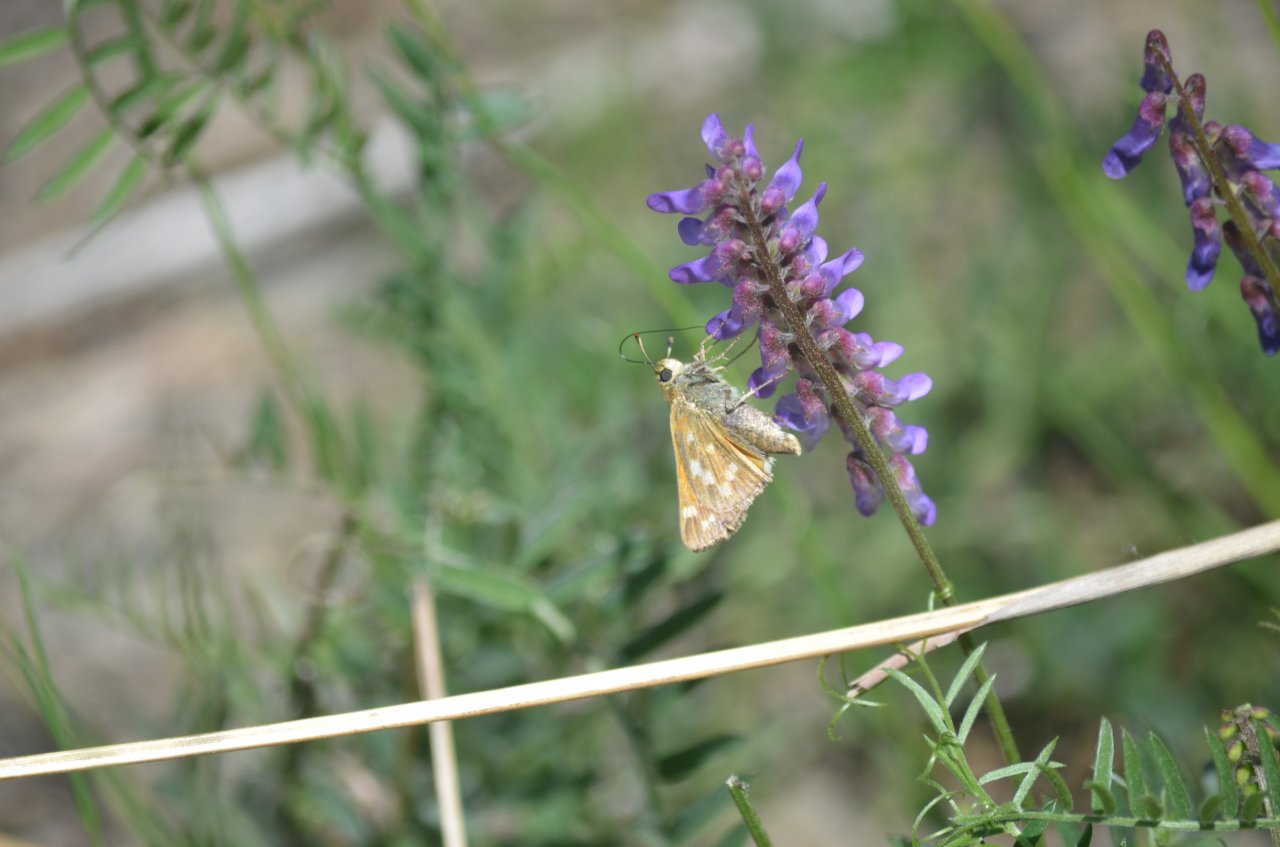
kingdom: Animalia
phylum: Arthropoda
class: Insecta
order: Lepidoptera
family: Hesperiidae
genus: Hesperia
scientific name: Hesperia sassacus
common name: Sassacus Skipper
